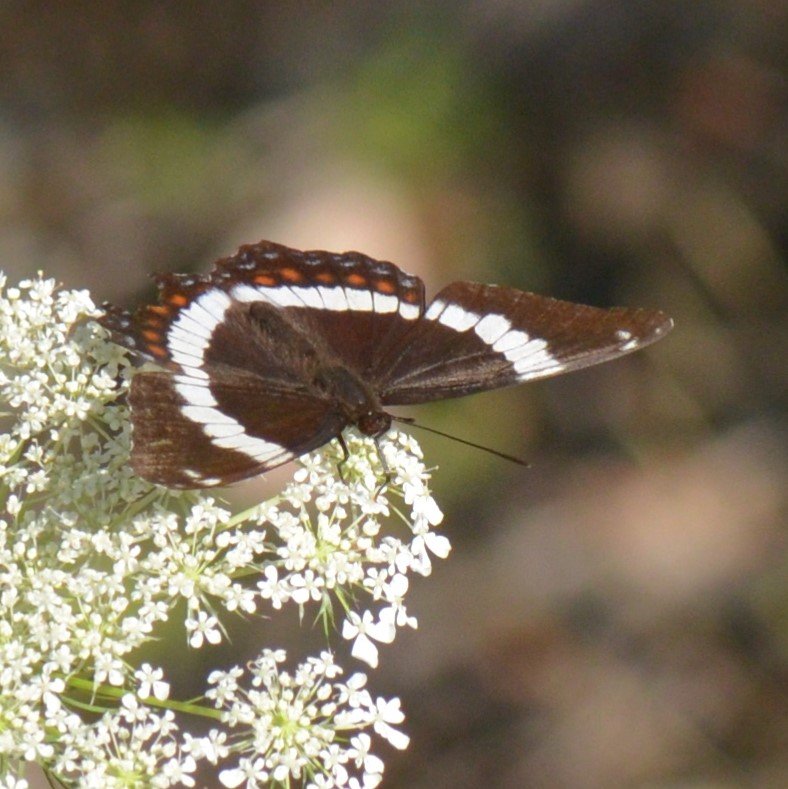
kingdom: Animalia
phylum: Arthropoda
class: Insecta
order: Lepidoptera
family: Nymphalidae
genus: Limenitis
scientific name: Limenitis arthemis
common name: Red-spotted Admiral
